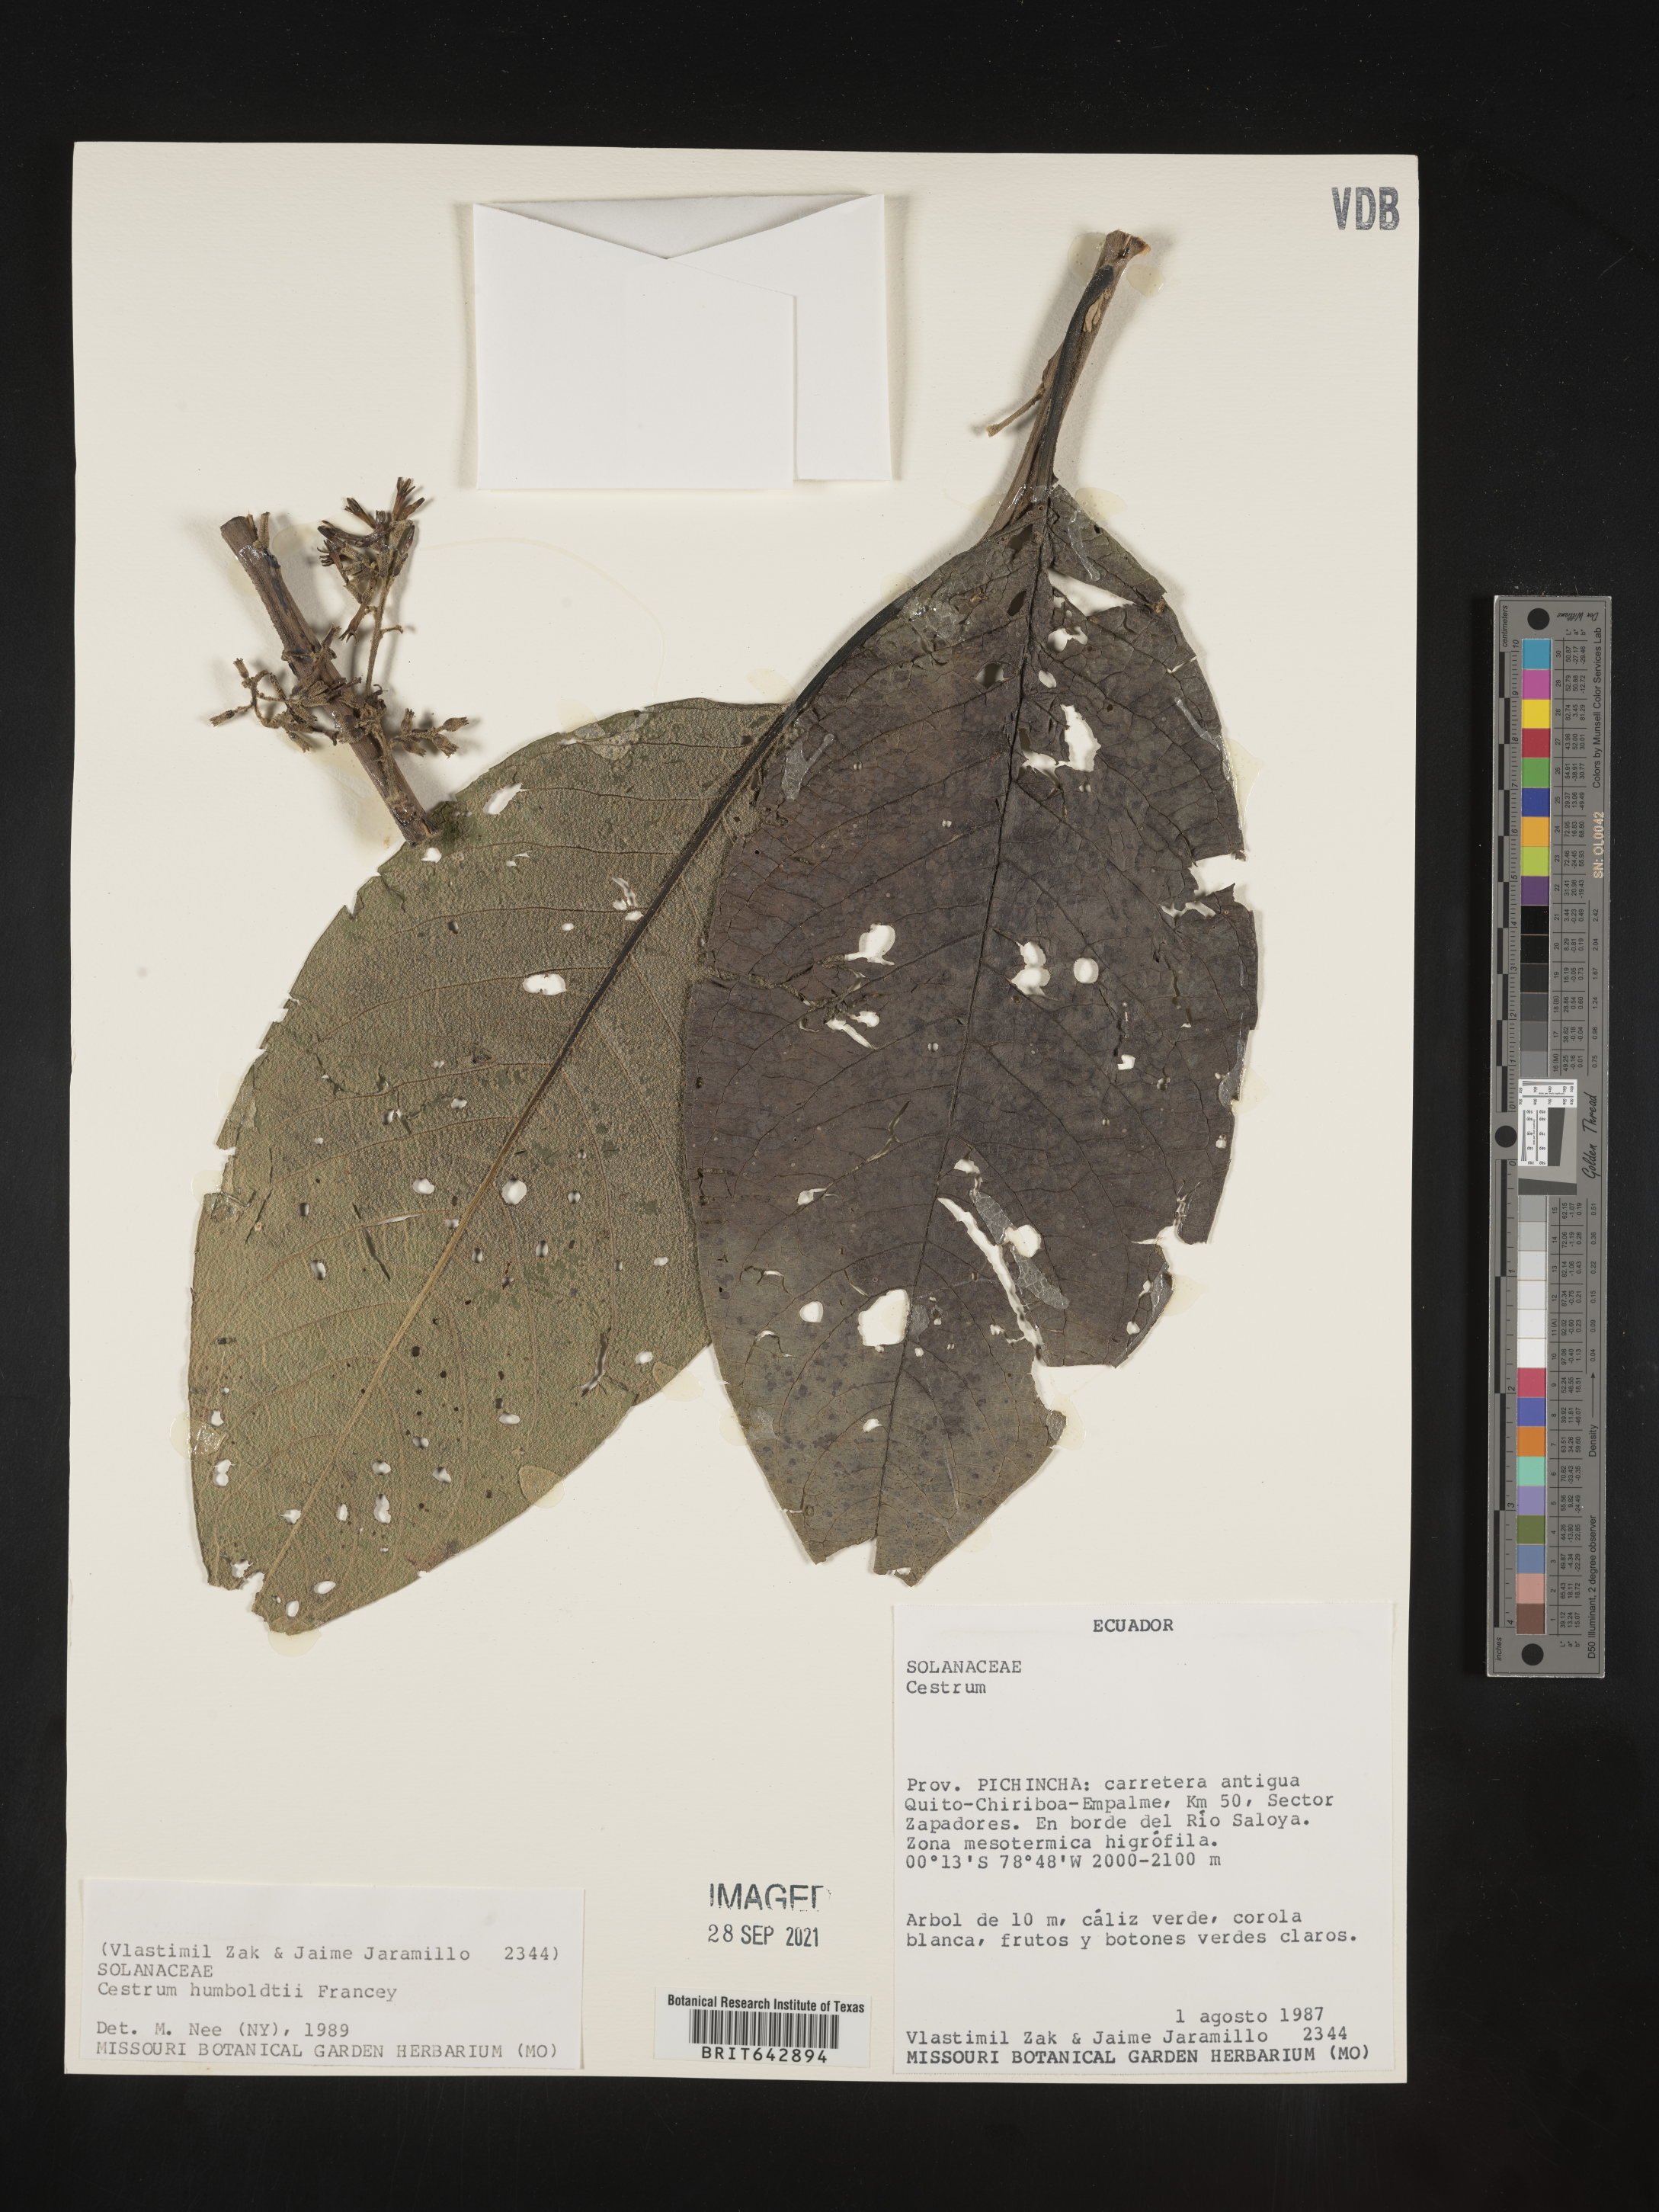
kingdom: Plantae
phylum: Tracheophyta
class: Magnoliopsida
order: Solanales
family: Solanaceae
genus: Cestrum
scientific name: Cestrum
